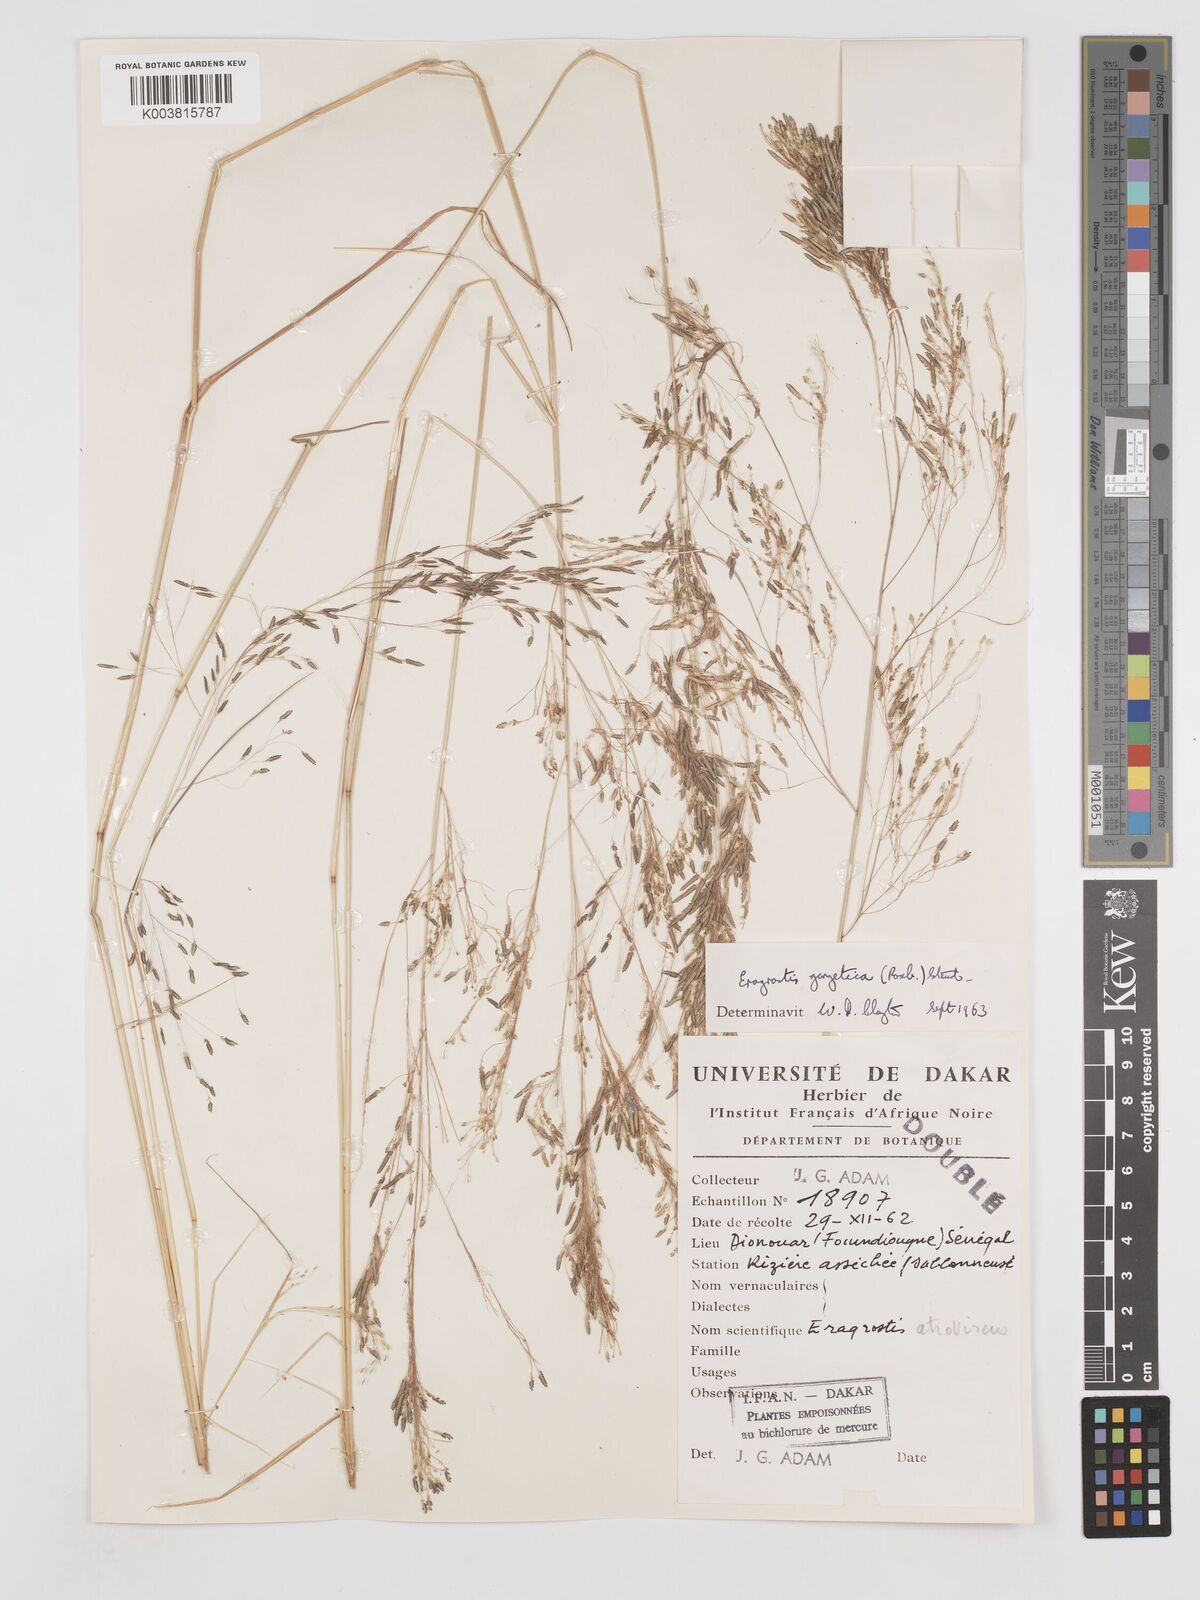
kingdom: Plantae
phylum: Tracheophyta
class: Liliopsida
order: Poales
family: Poaceae
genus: Eragrostis
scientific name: Eragrostis gangetica
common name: Slimflower lovegrass
